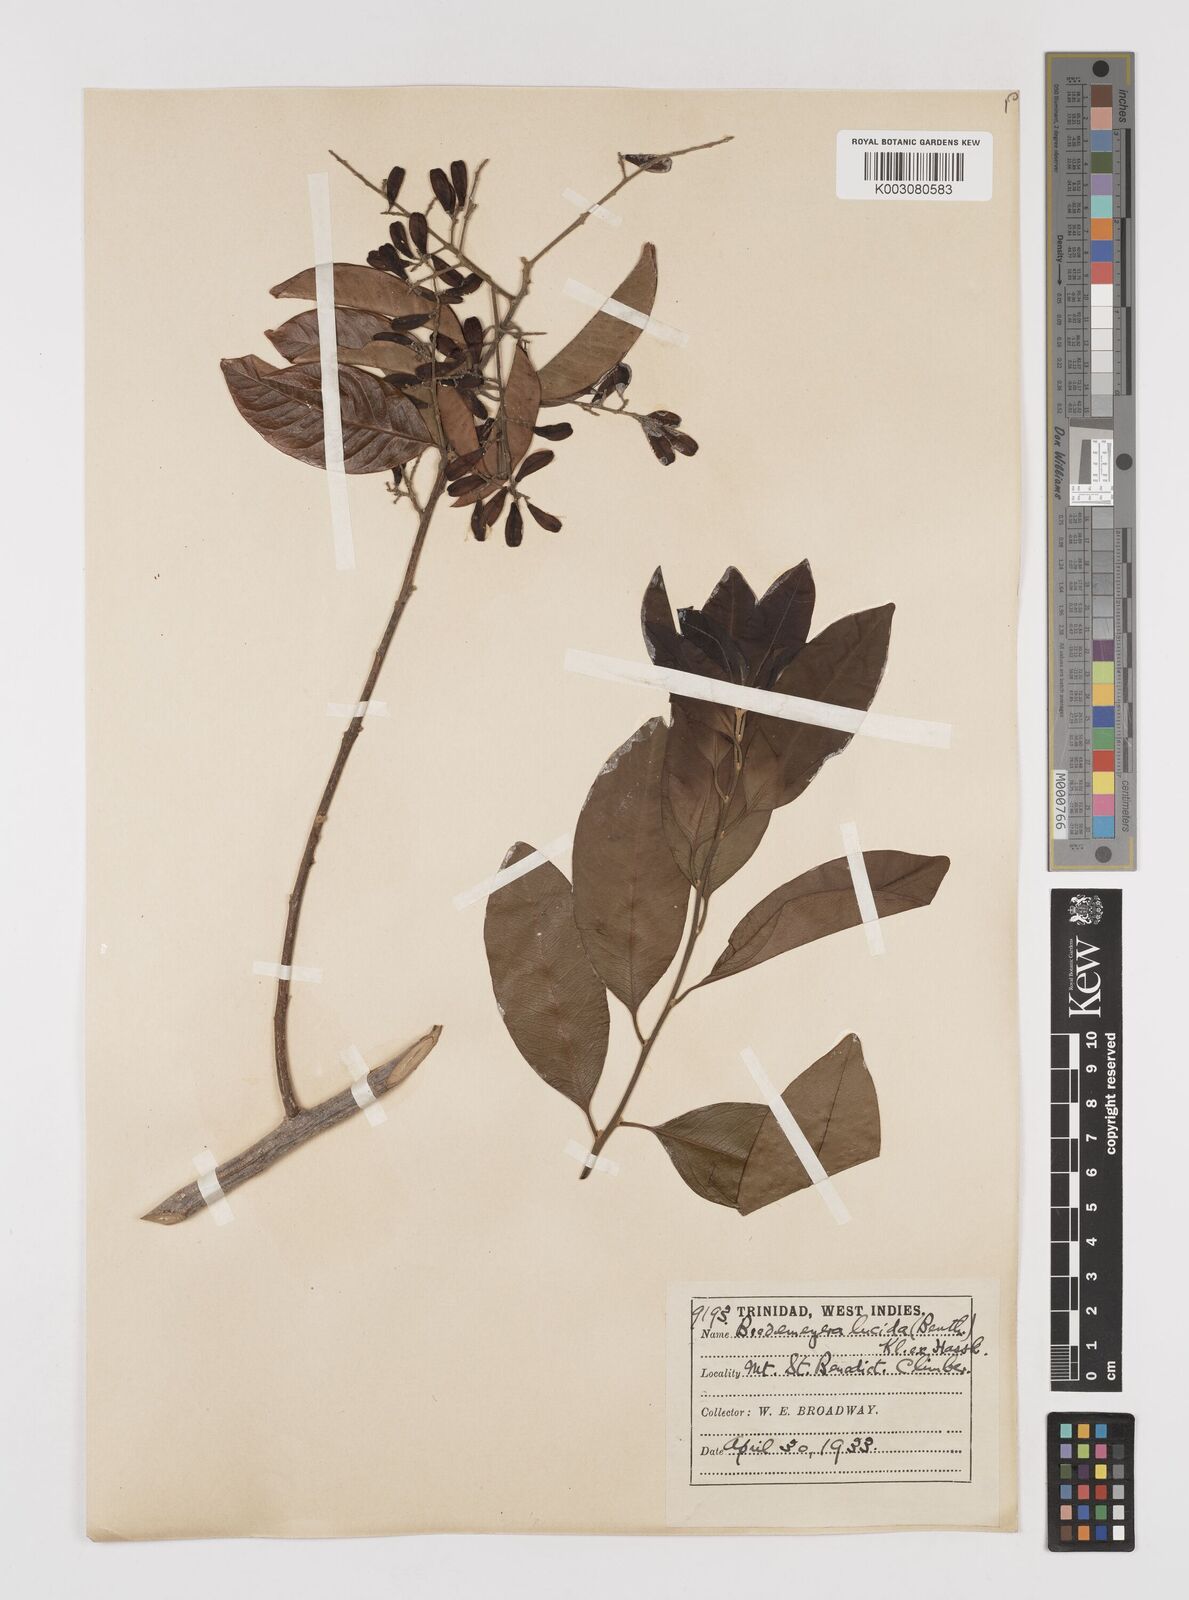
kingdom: Plantae
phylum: Tracheophyta
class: Magnoliopsida
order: Fabales
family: Polygalaceae
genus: Bredemeyera
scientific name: Bredemeyera lucida
